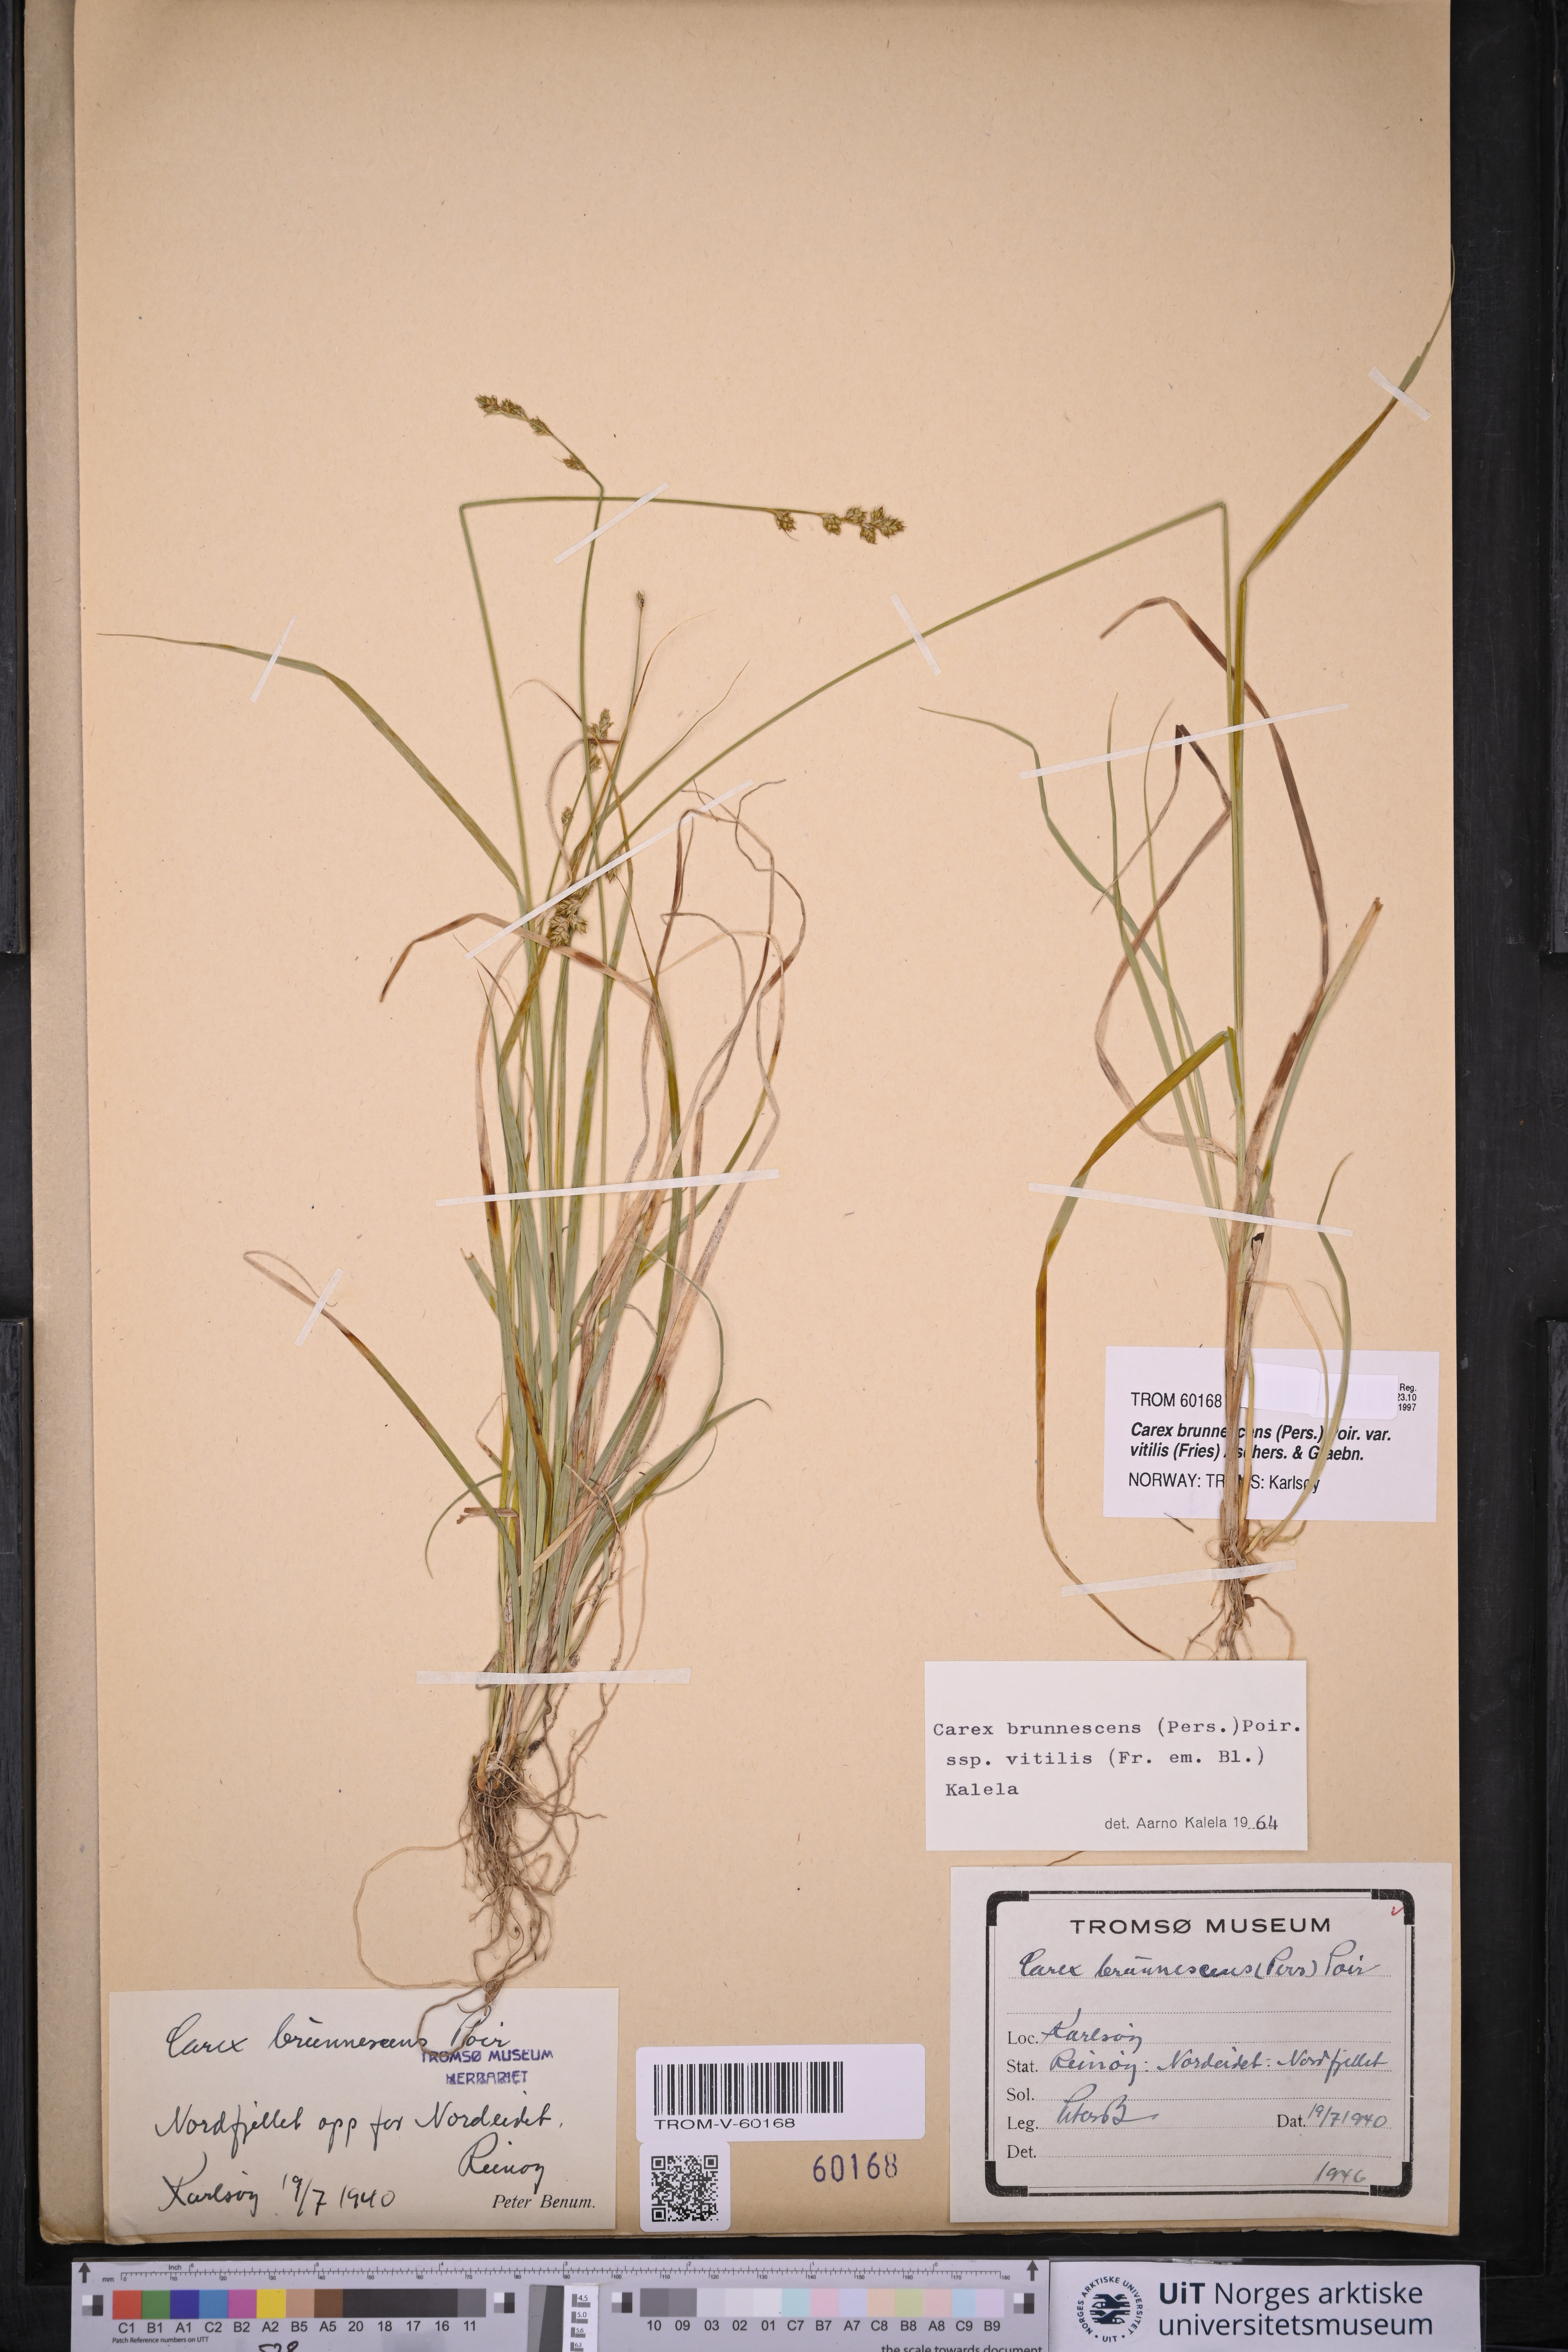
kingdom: Plantae
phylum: Tracheophyta
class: Liliopsida
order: Poales
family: Cyperaceae
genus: Carex
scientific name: Carex brunnescens
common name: Brown sedge
